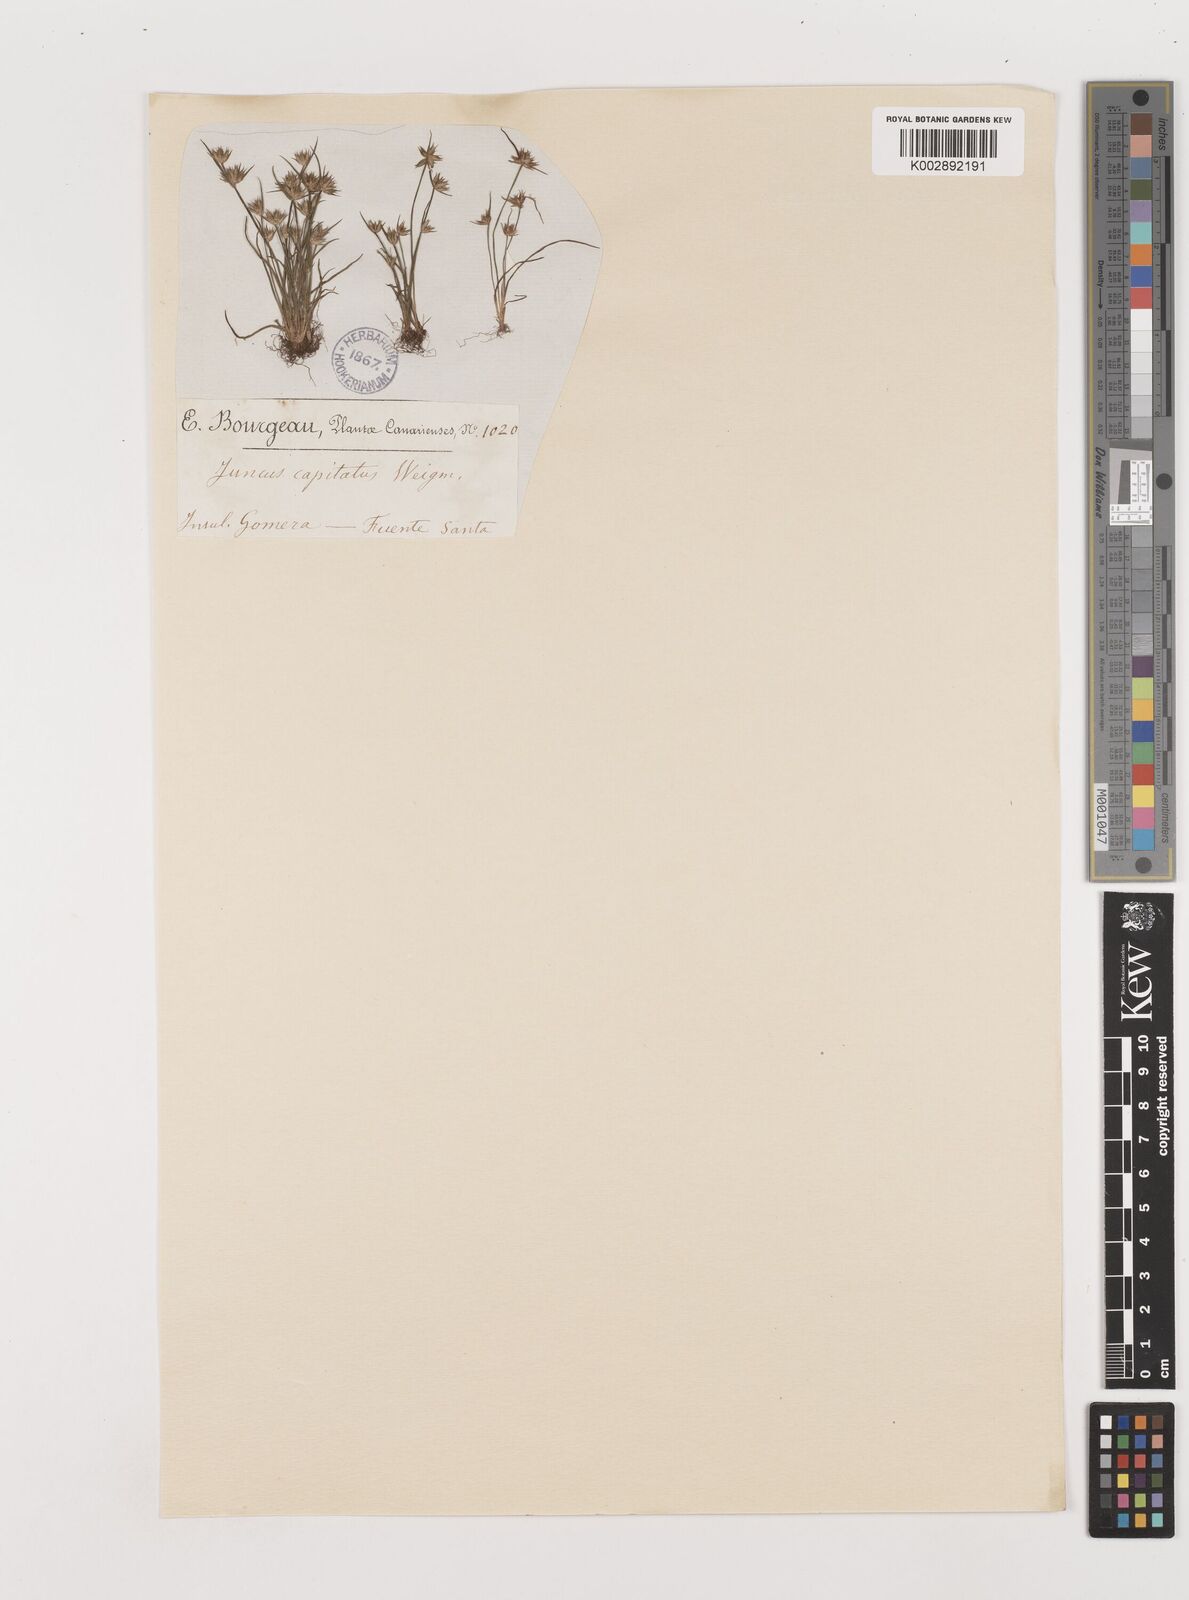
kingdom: Plantae
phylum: Tracheophyta
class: Liliopsida
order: Poales
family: Juncaceae
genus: Juncus
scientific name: Juncus capitatus
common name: Dwarf rush
